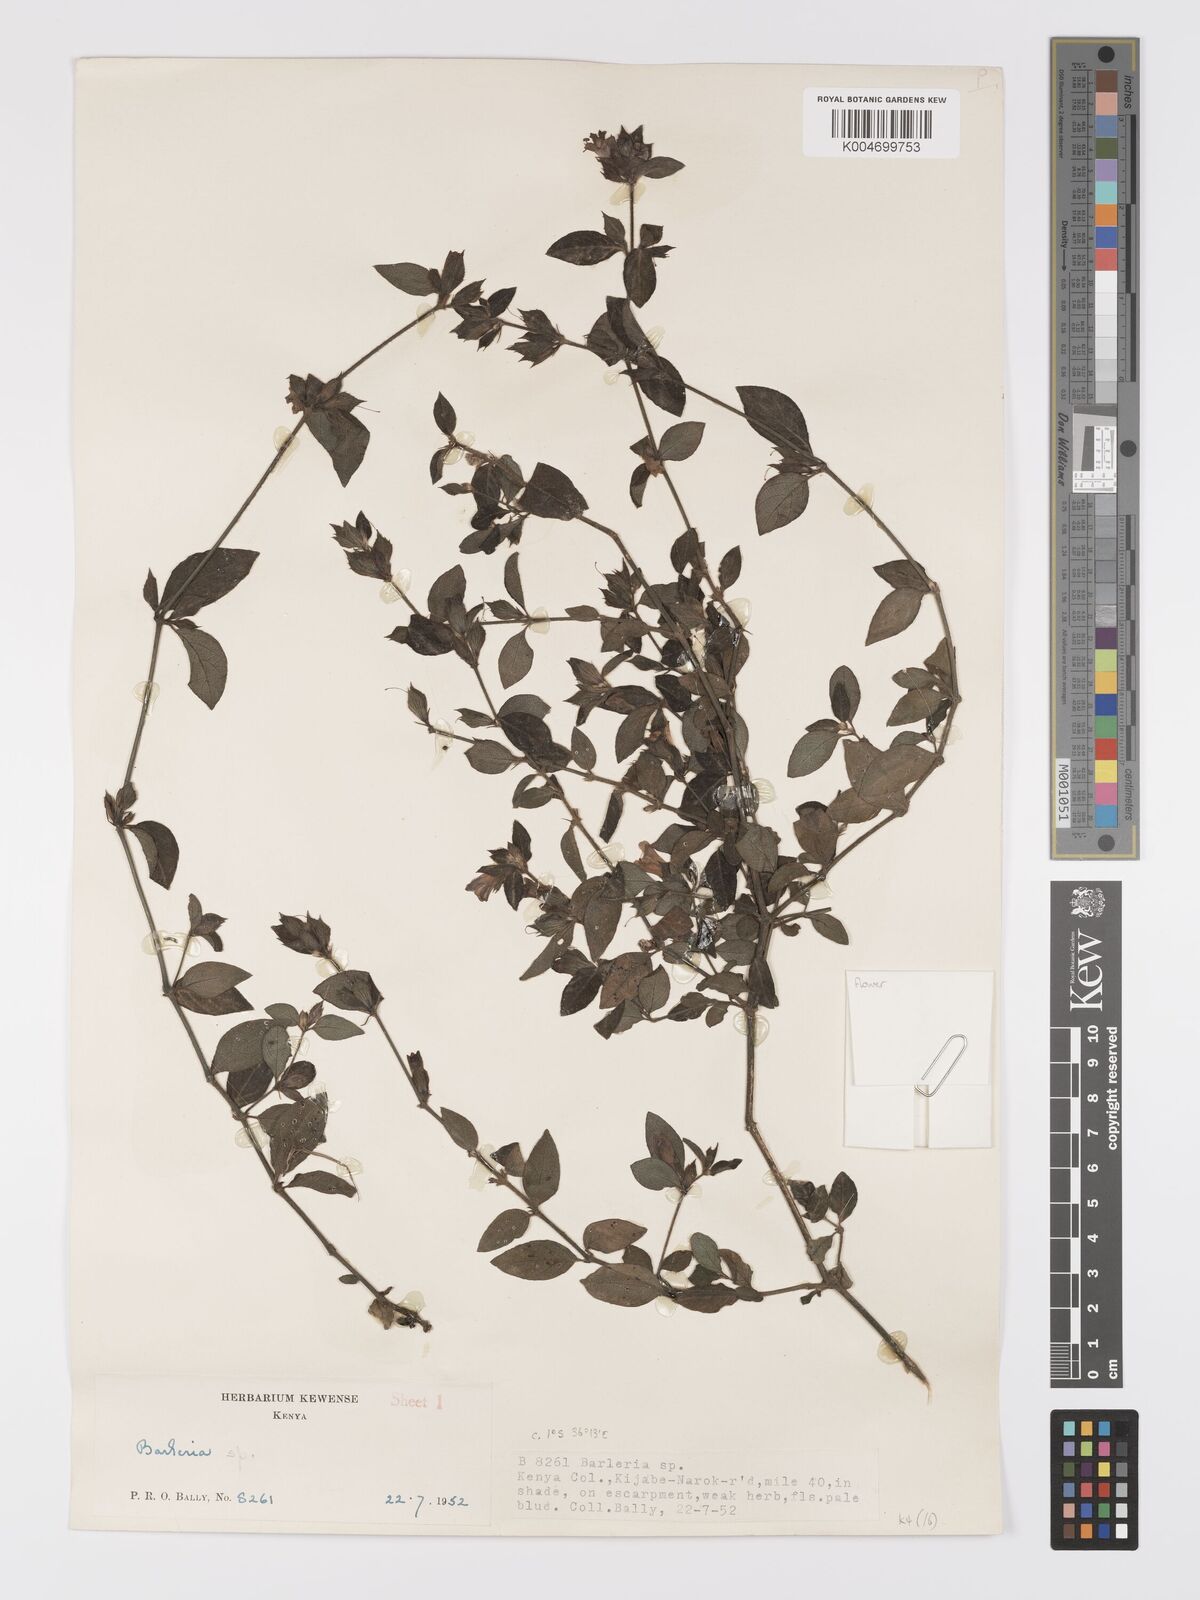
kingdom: Plantae
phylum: Tracheophyta
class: Magnoliopsida
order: Lamiales
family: Acanthaceae
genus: Barleria
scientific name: Barleria ventricosa
